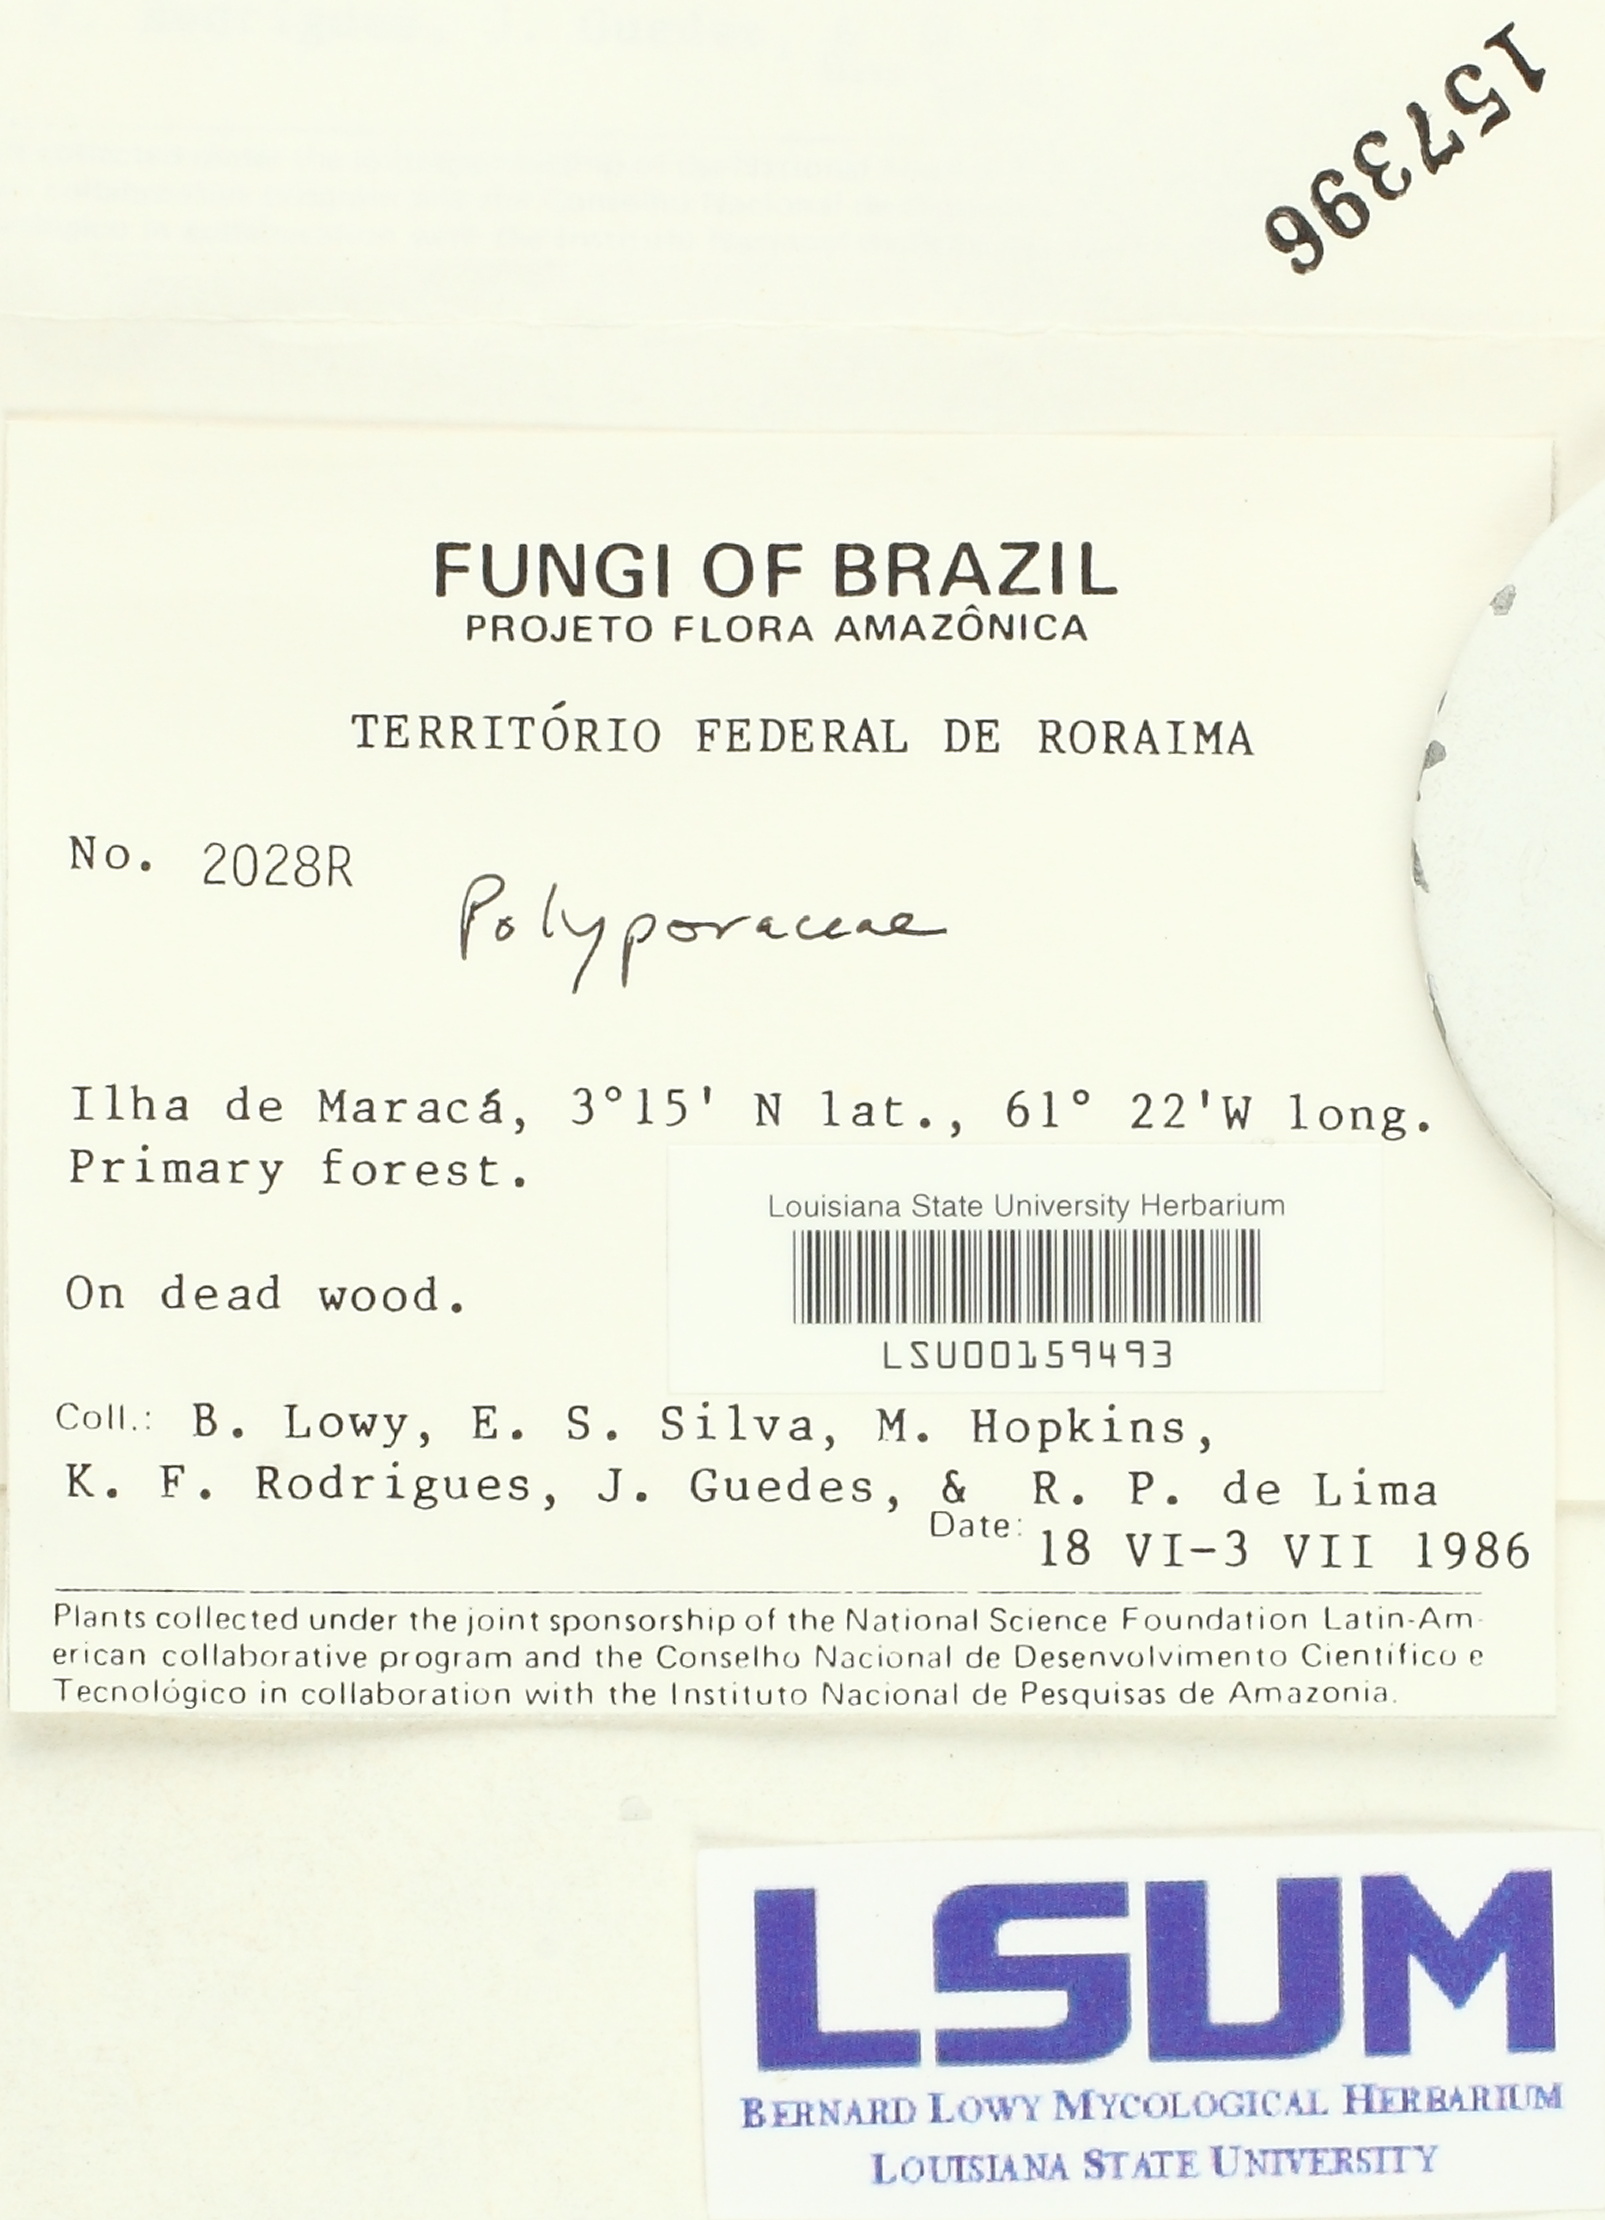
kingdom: Fungi
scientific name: Fungi
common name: Fungi
